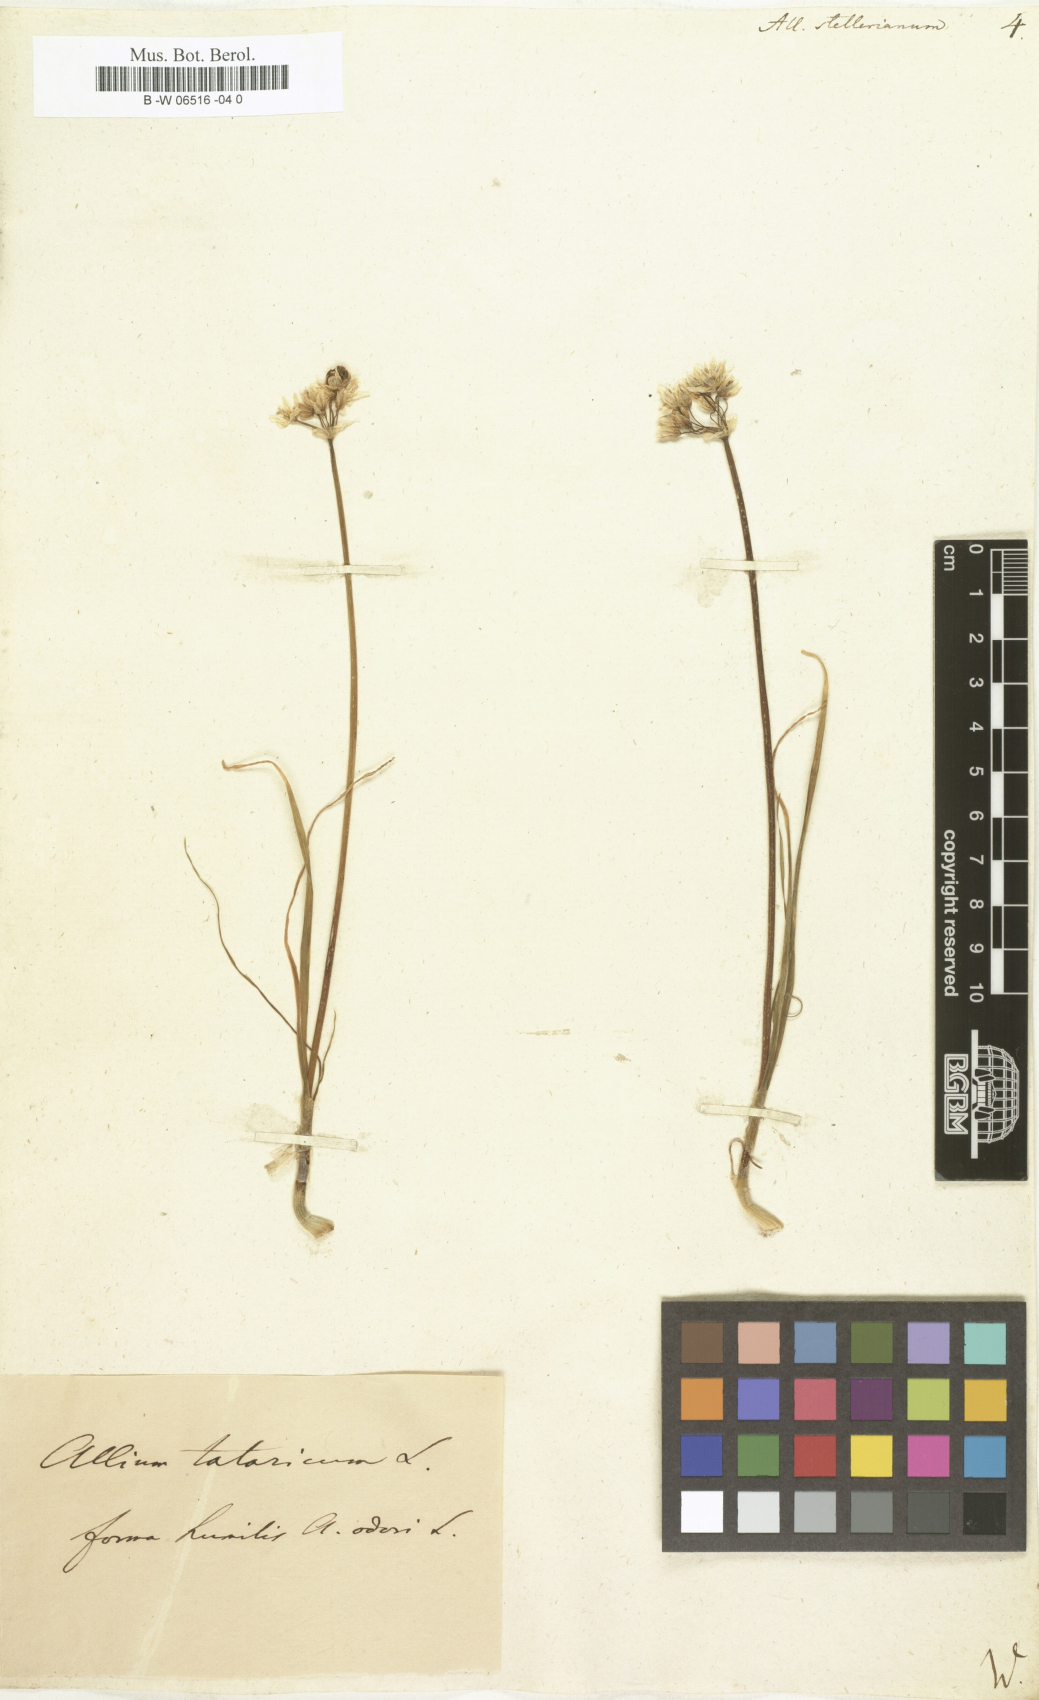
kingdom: Plantae
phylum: Tracheophyta
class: Liliopsida
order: Asparagales
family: Amaryllidaceae
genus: Allium
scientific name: Allium stellerianum
